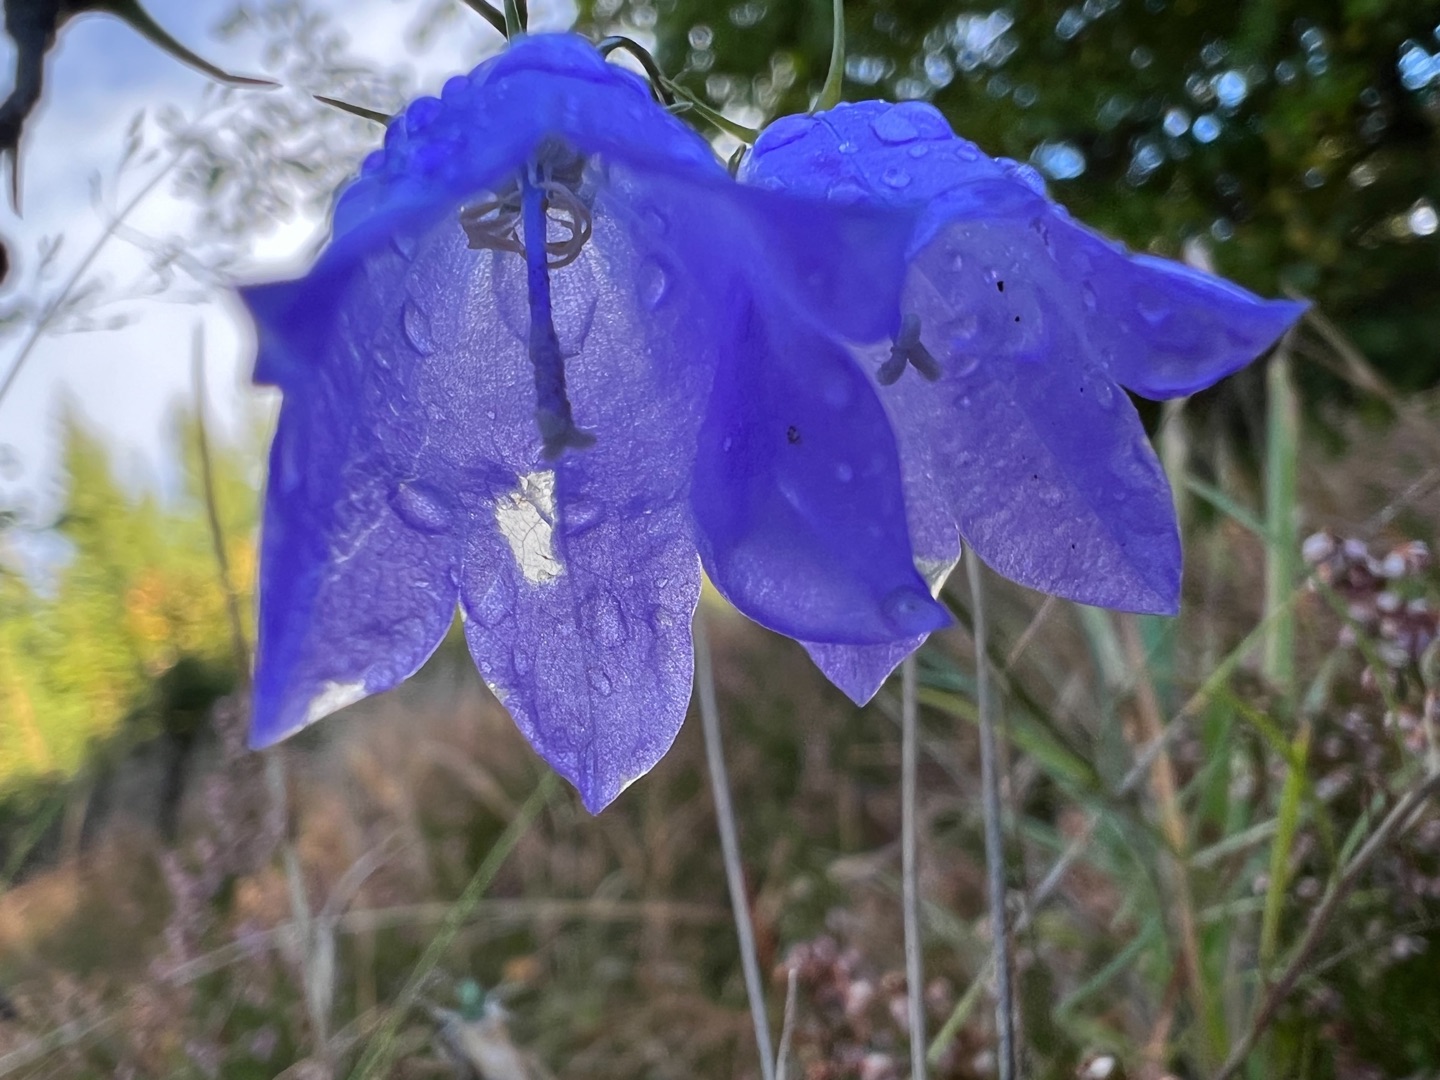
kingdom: Plantae
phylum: Tracheophyta
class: Magnoliopsida
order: Asterales
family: Campanulaceae
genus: Campanula
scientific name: Campanula rotundifolia
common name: Liden klokke
